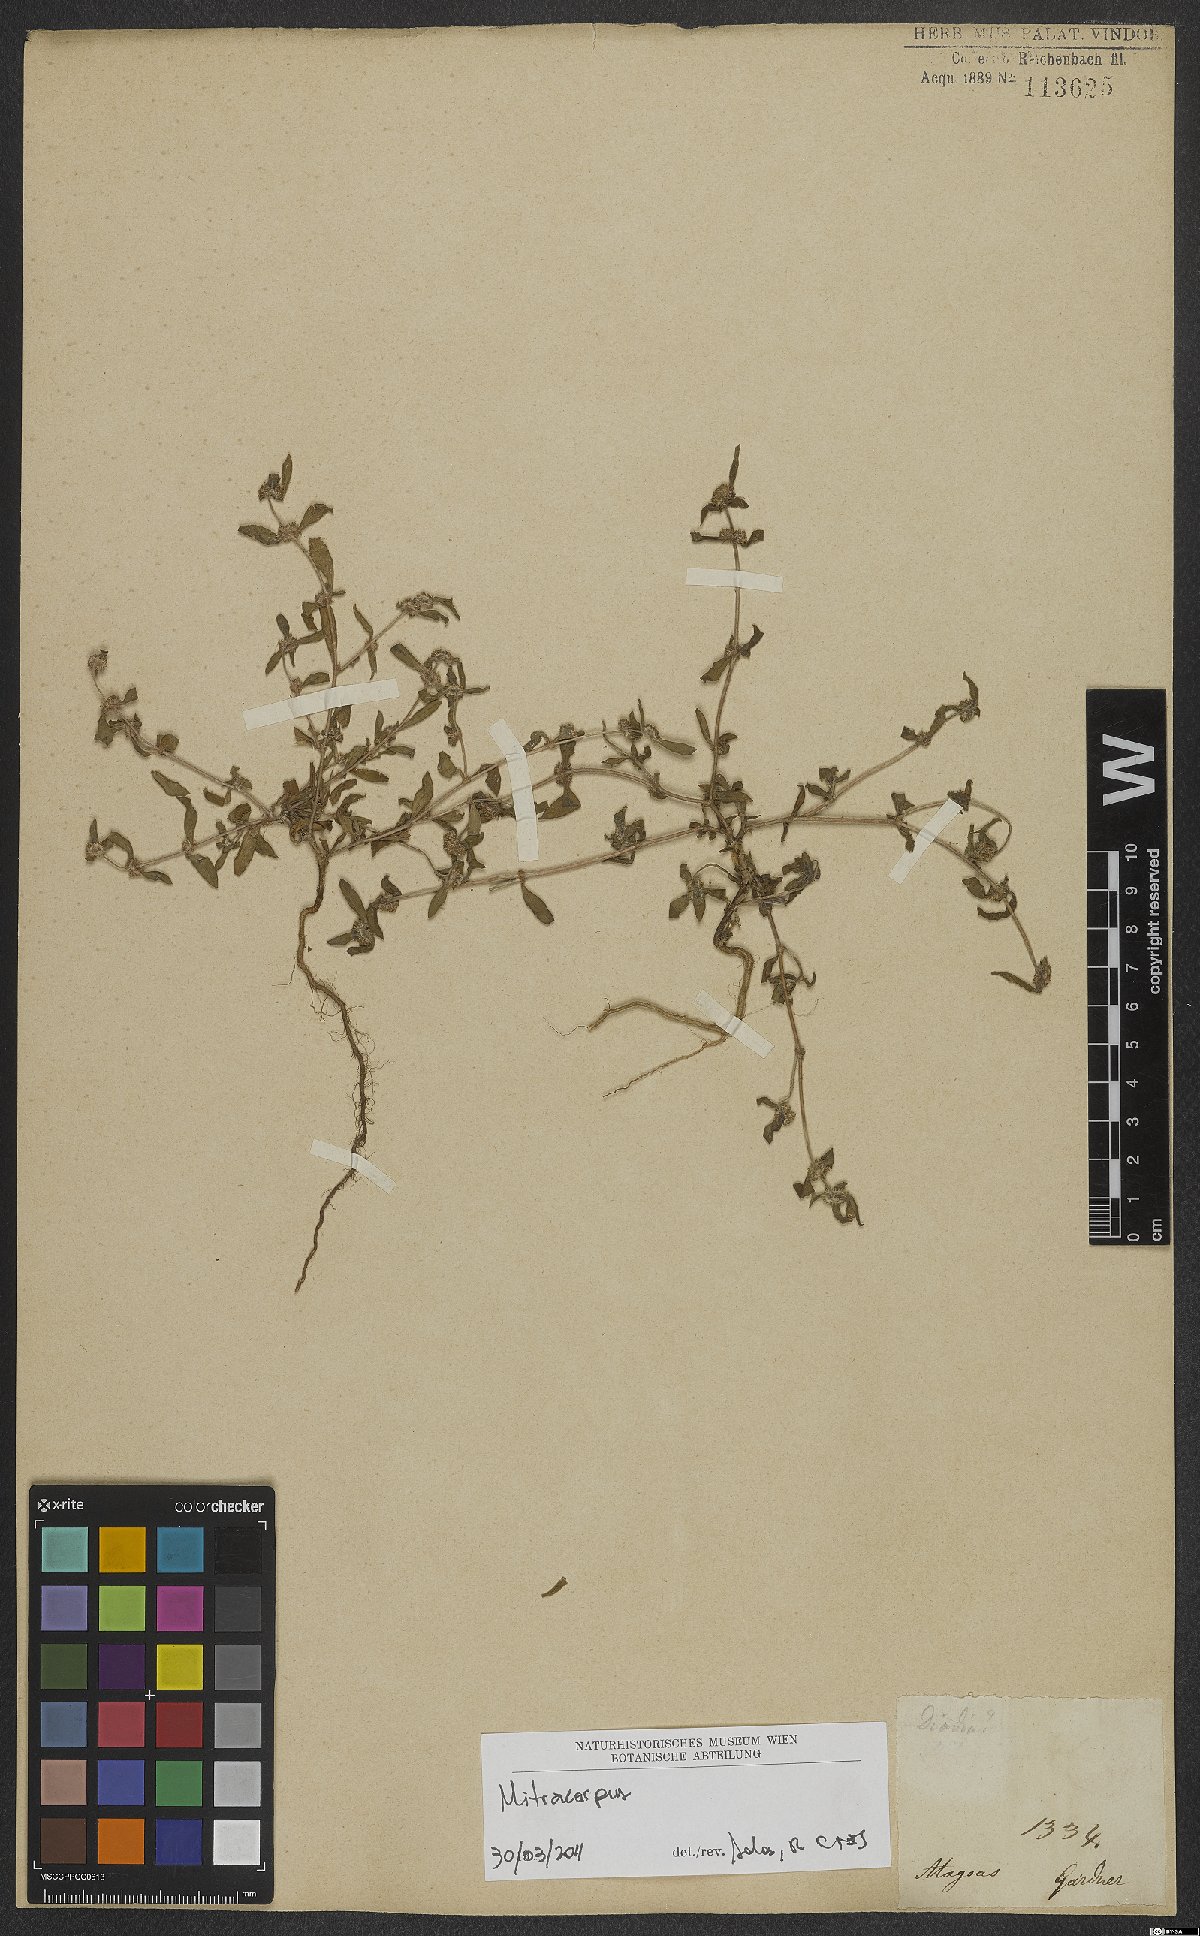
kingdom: Plantae
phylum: Tracheophyta
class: Magnoliopsida
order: Gentianales
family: Rubiaceae
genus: Mitracarpus
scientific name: Mitracarpus
